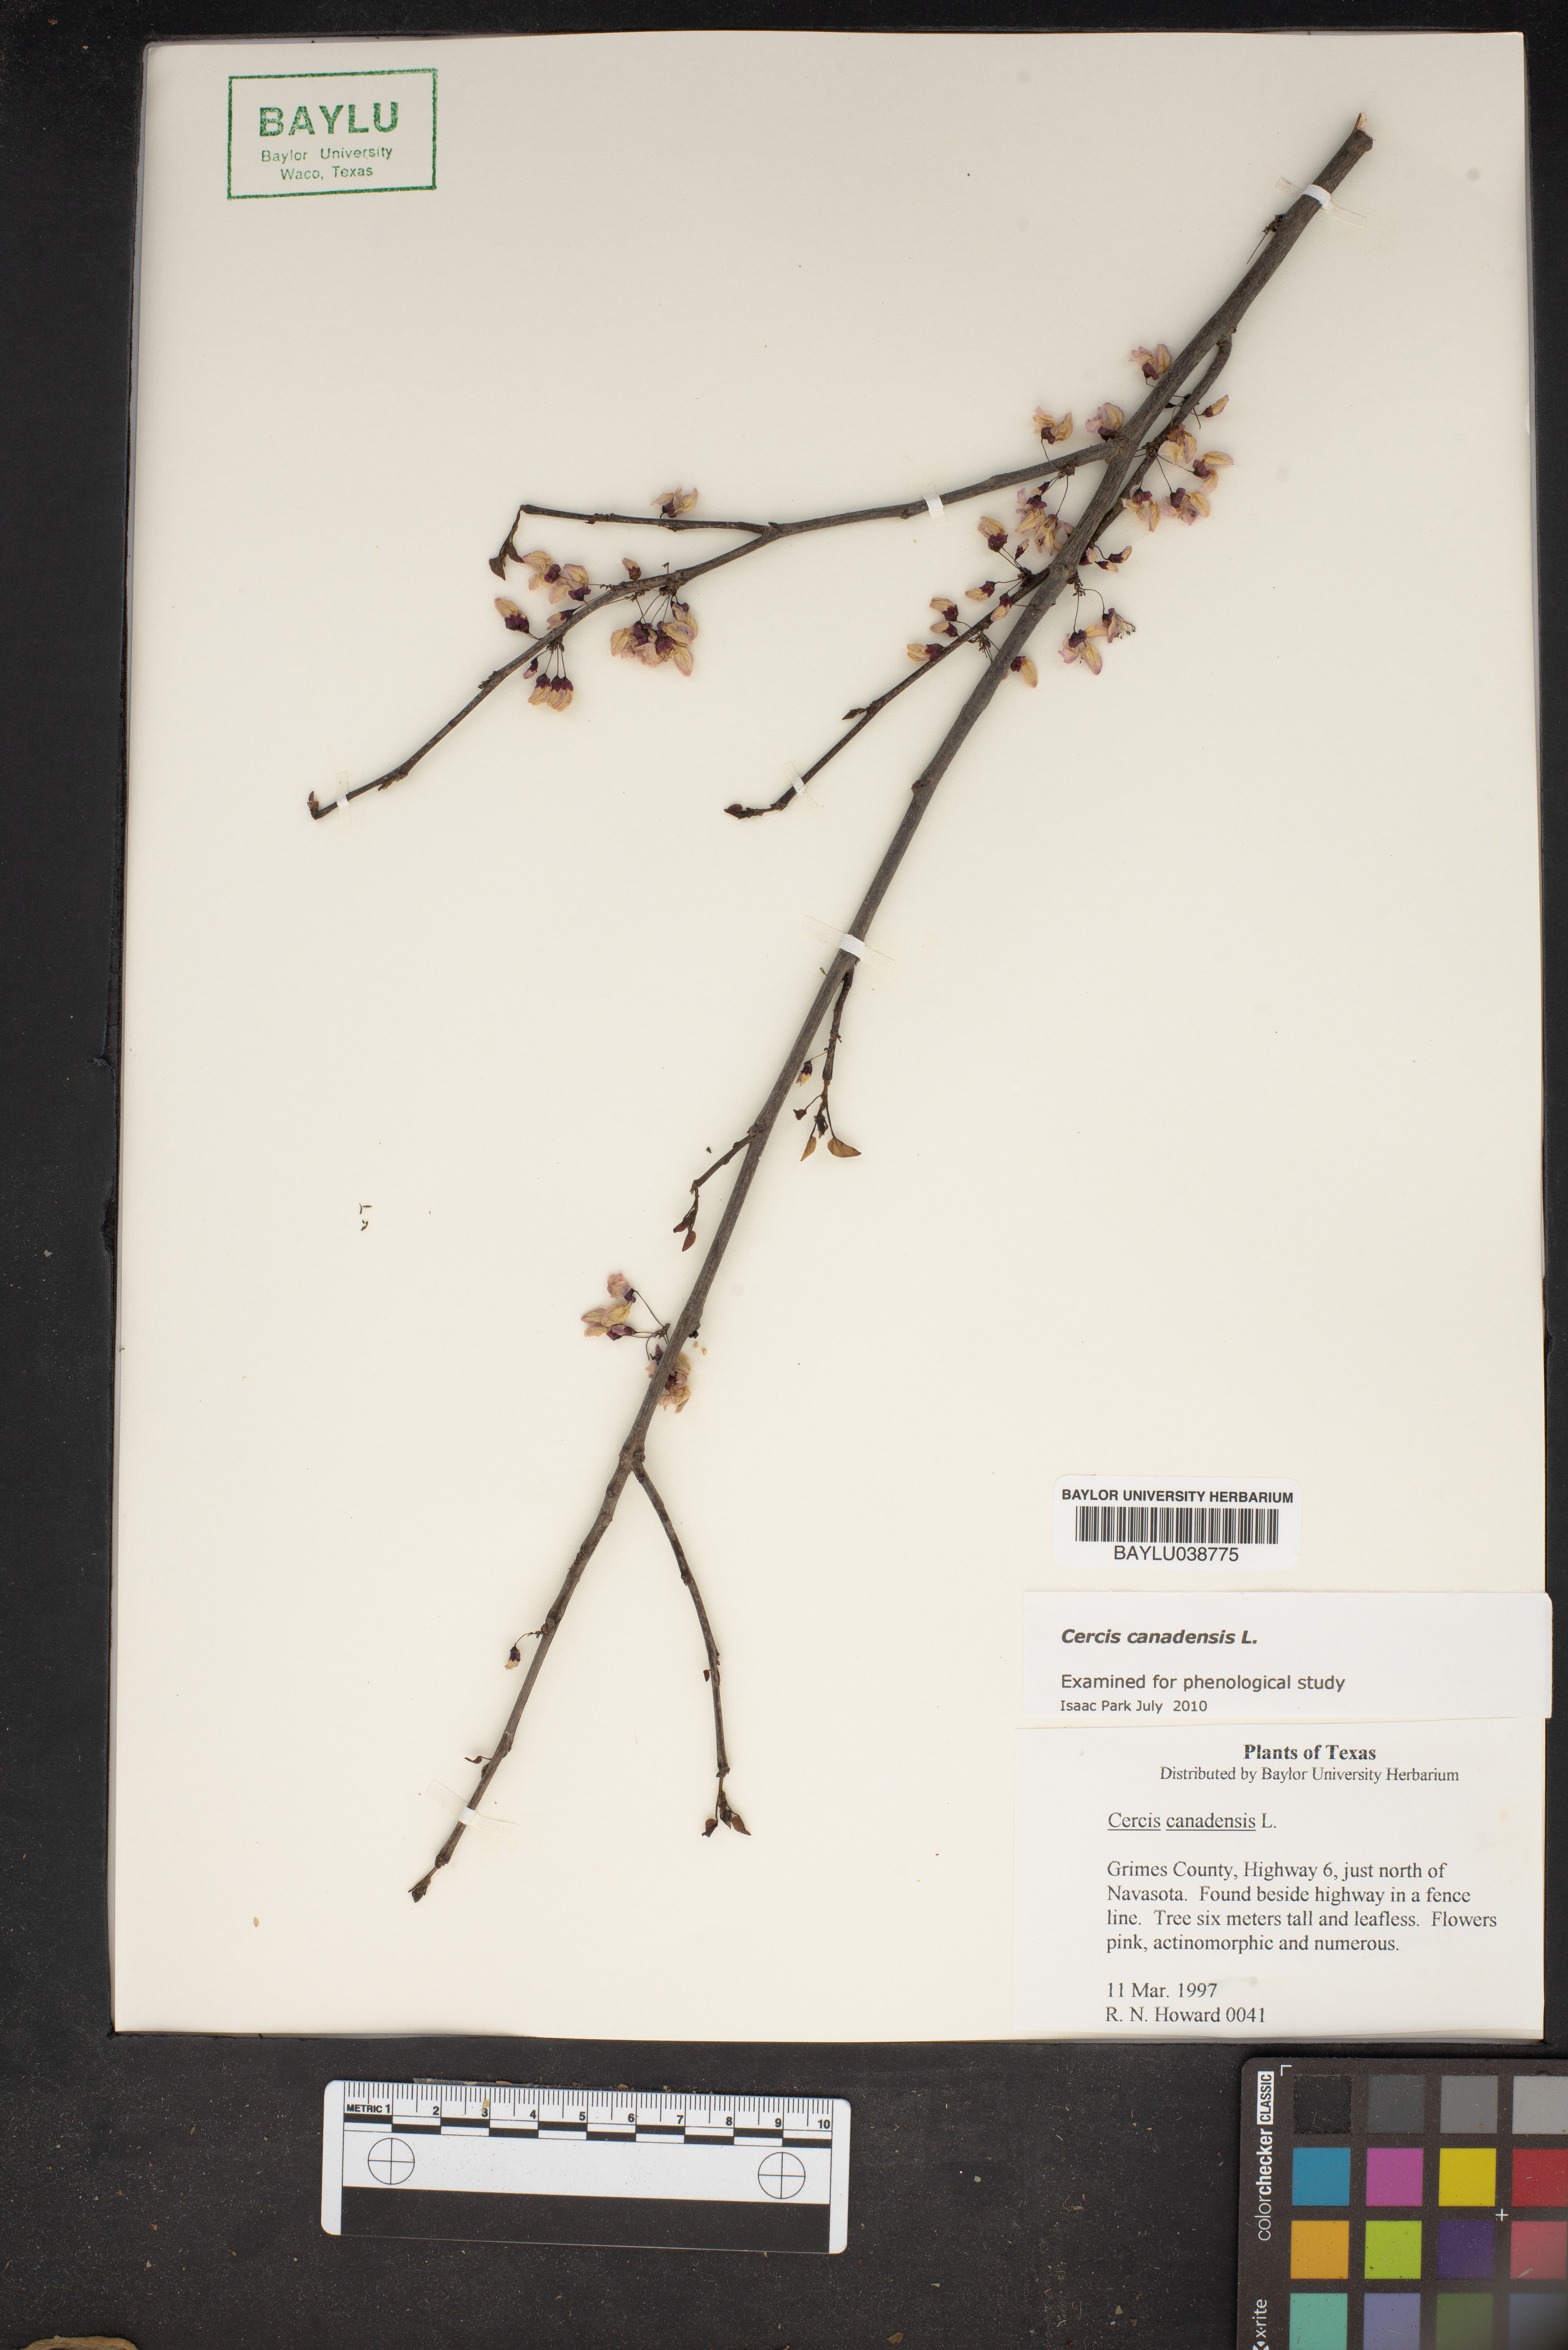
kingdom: Plantae
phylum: Tracheophyta
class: Magnoliopsida
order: Fabales
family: Fabaceae
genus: Cercis
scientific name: Cercis canadensis
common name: Eastern redbud
